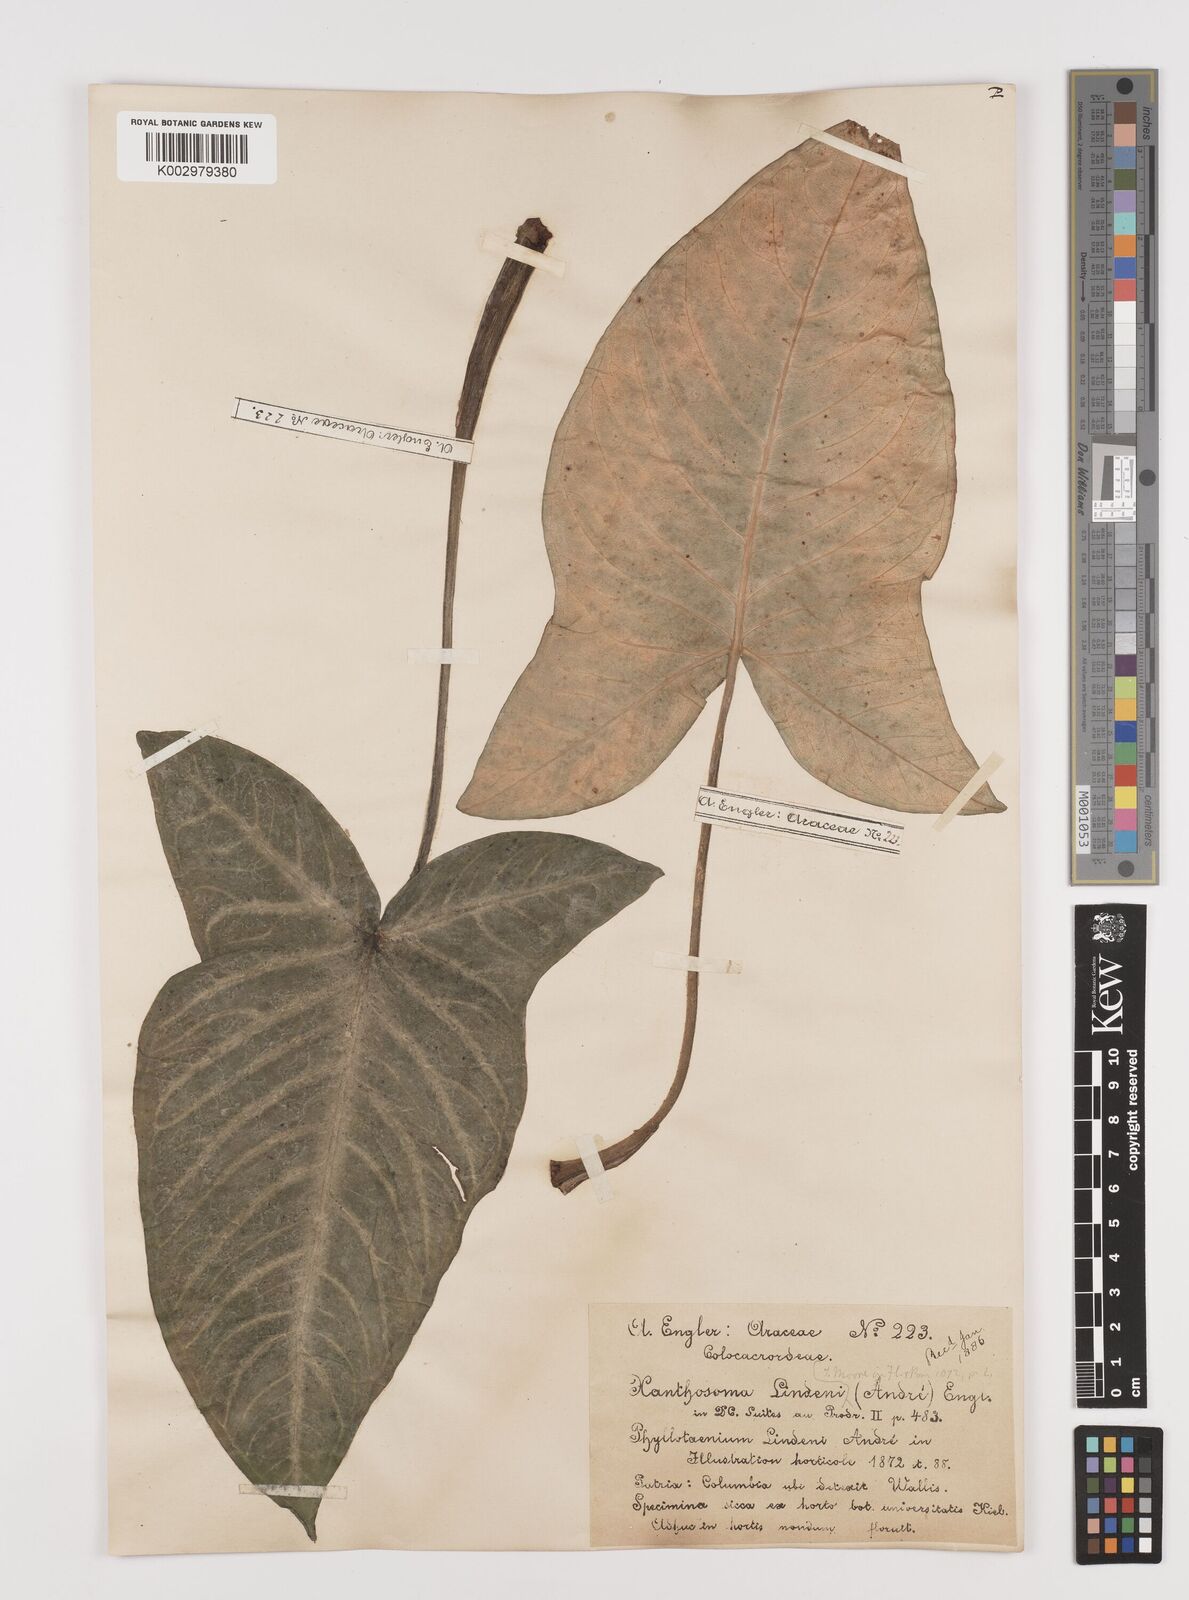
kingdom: Plantae
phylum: Tracheophyta
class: Liliopsida
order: Alismatales
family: Araceae
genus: Caladium
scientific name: Caladium
